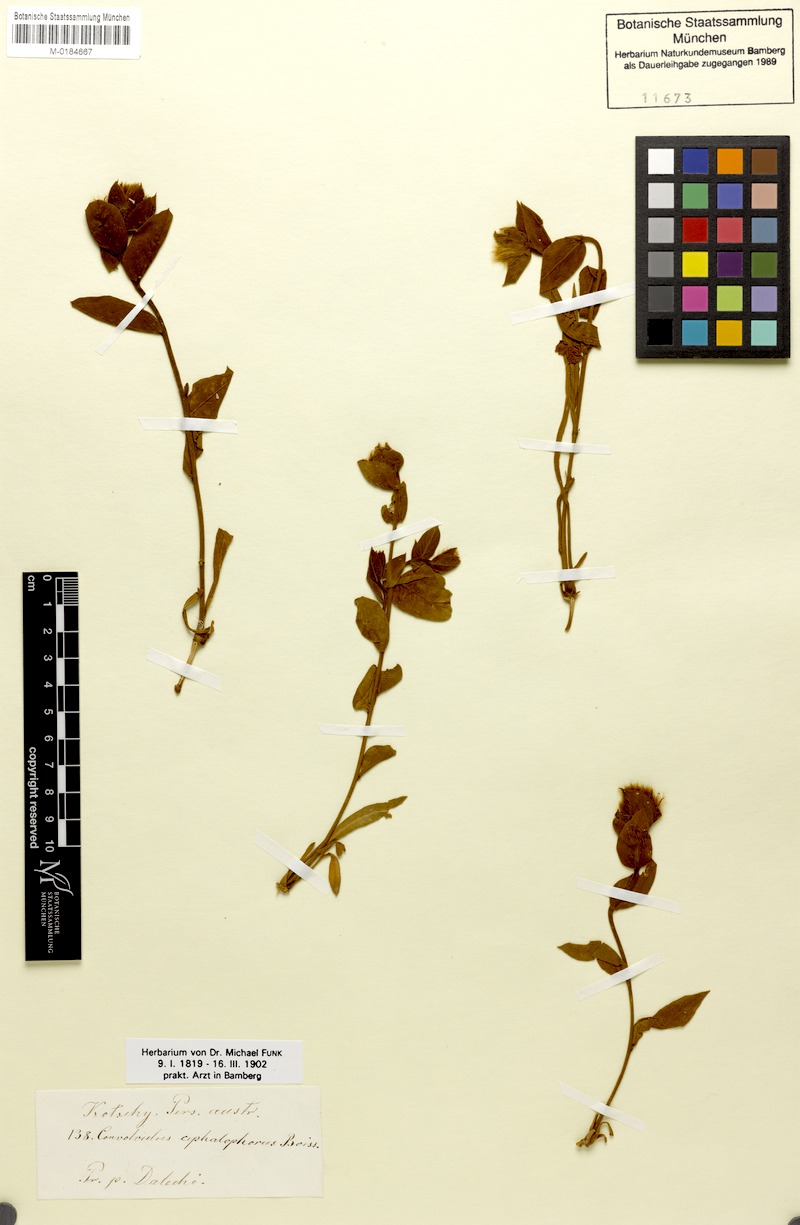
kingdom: Plantae
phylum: Tracheophyta
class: Magnoliopsida
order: Solanales
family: Convolvulaceae
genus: Convolvulus
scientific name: Convolvulus cephalophorus
